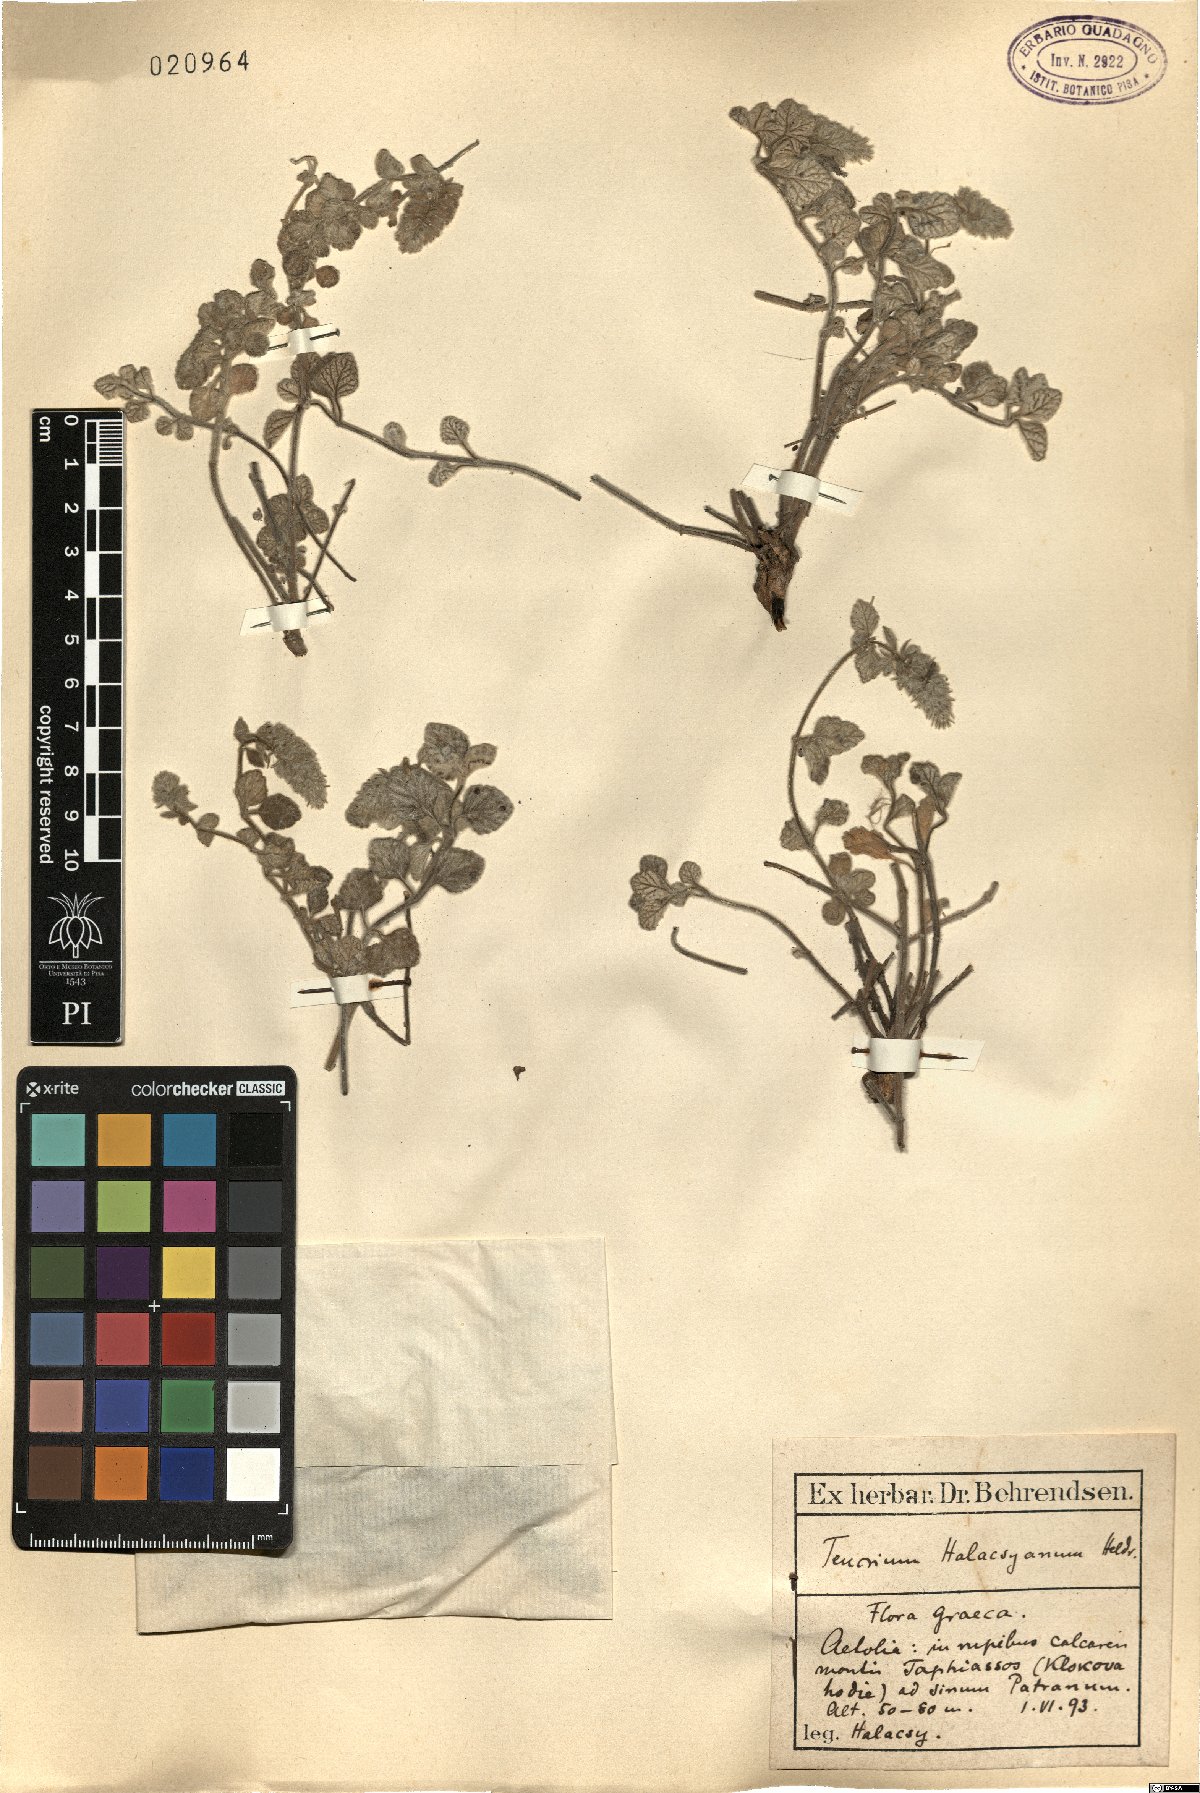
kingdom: Plantae
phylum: Tracheophyta
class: Magnoliopsida
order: Lamiales
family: Lamiaceae
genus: Teucrium
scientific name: Teucrium halacsyanum
